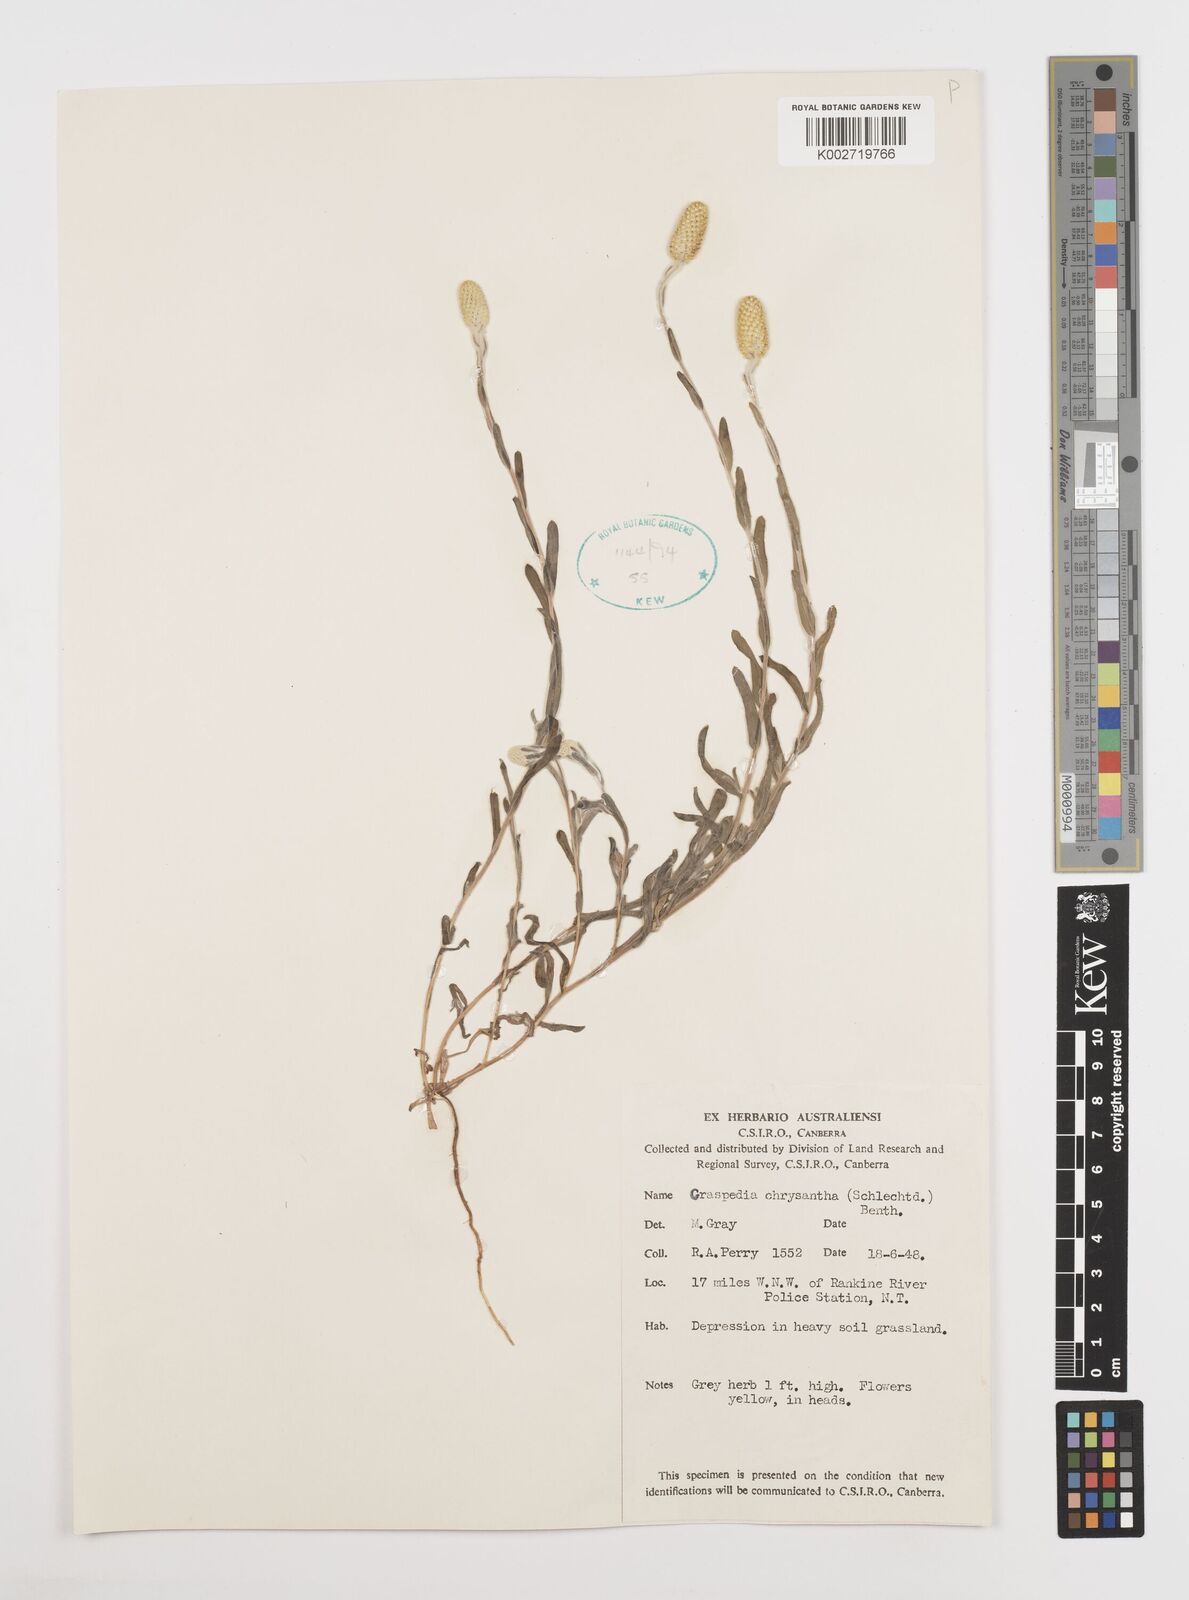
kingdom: Plantae
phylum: Tracheophyta
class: Magnoliopsida
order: Asterales
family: Asteraceae
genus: Pycnosorus
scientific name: Pycnosorus chrysanthus
